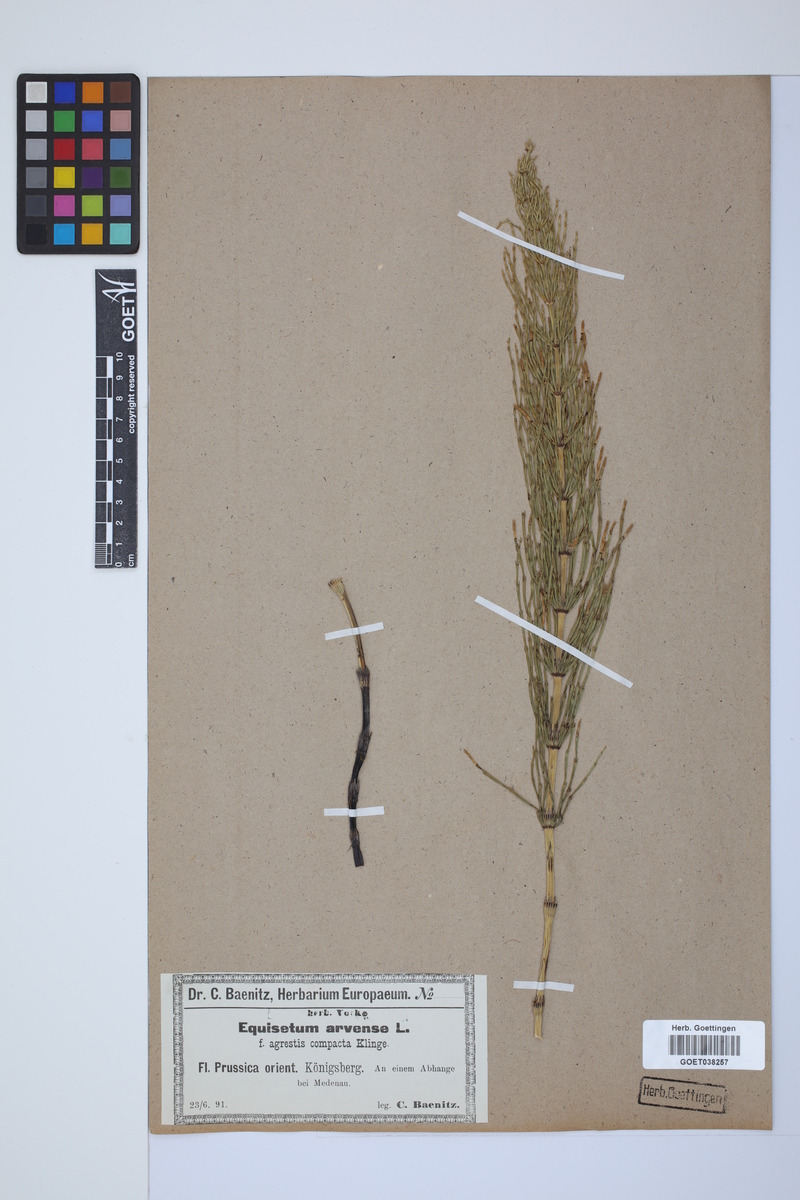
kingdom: Plantae
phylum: Tracheophyta
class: Polypodiopsida
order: Equisetales
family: Equisetaceae
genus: Equisetum
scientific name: Equisetum arvense
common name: Field horsetail
